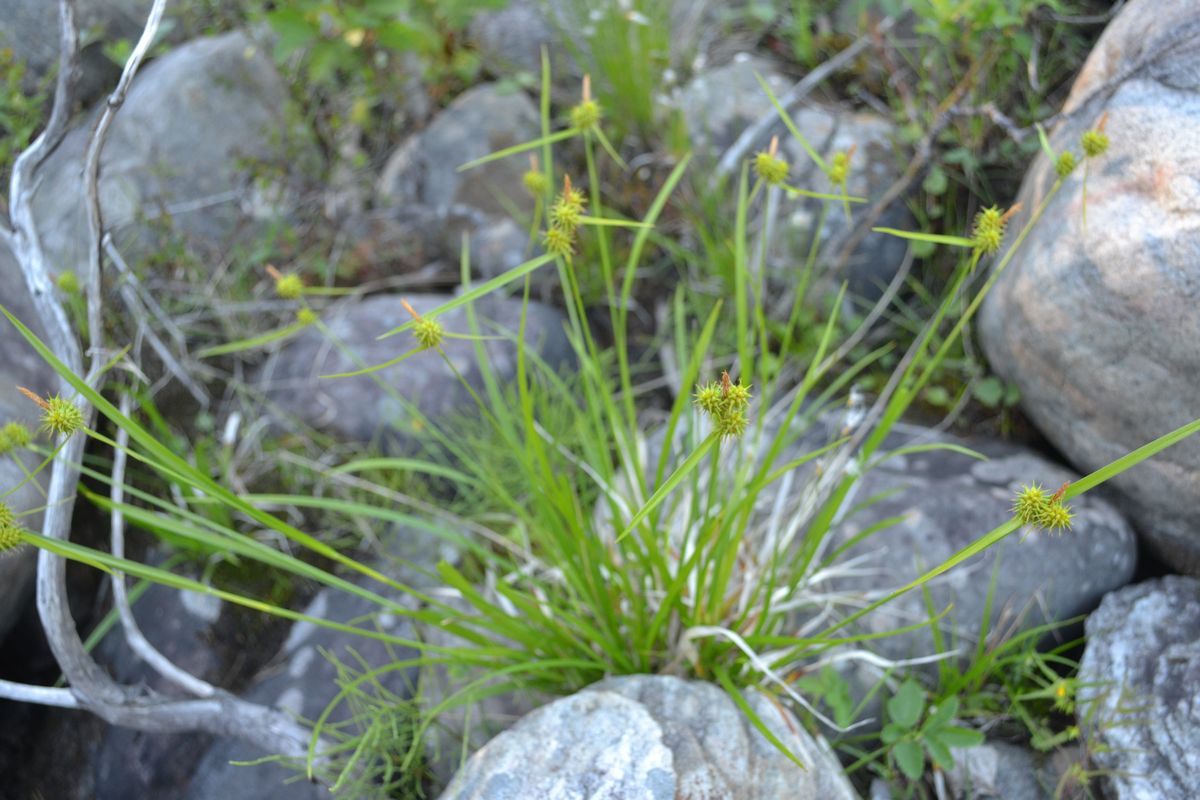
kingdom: Plantae
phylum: Tracheophyta
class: Liliopsida
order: Poales
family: Cyperaceae
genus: Carex
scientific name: Carex flava
